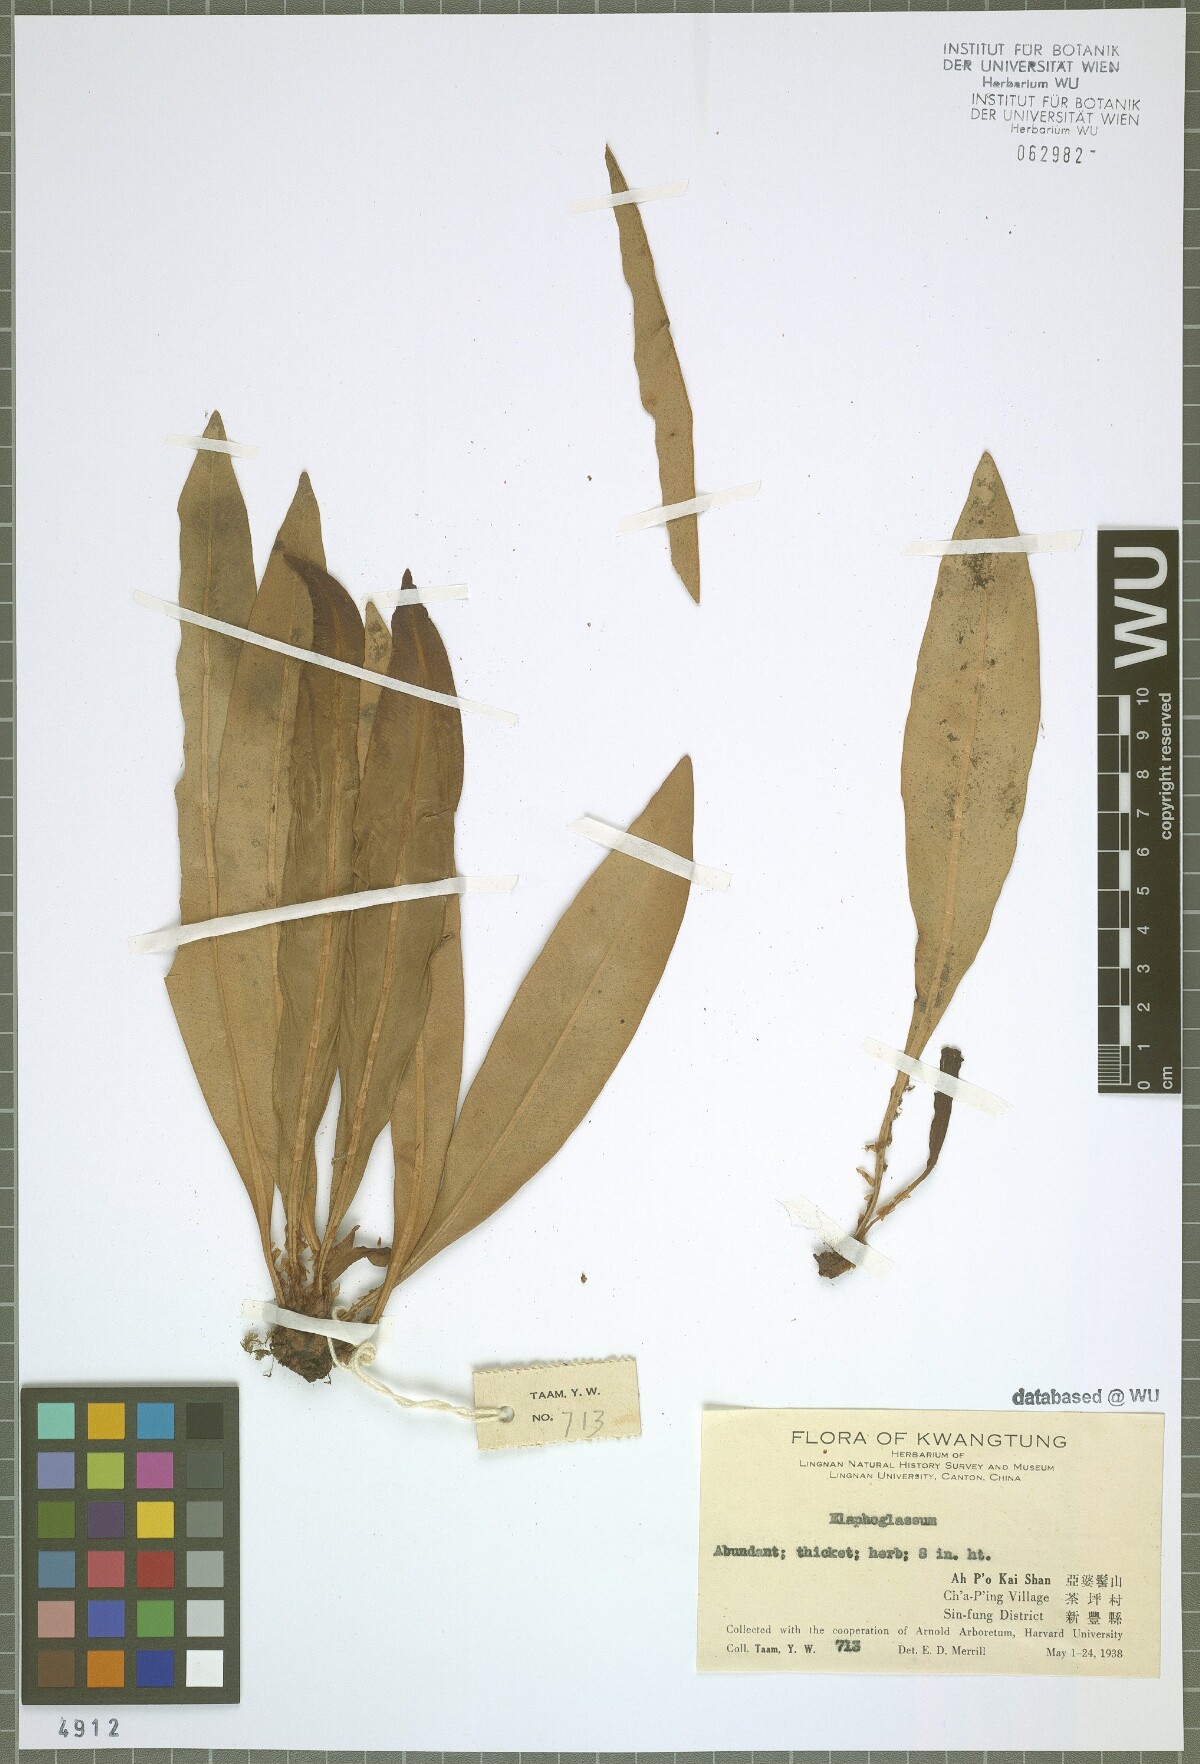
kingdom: Plantae
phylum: Tracheophyta
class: Polypodiopsida
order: Polypodiales
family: Dryopteridaceae
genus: Elaphoglossum
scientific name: Elaphoglossum yoshinagae
